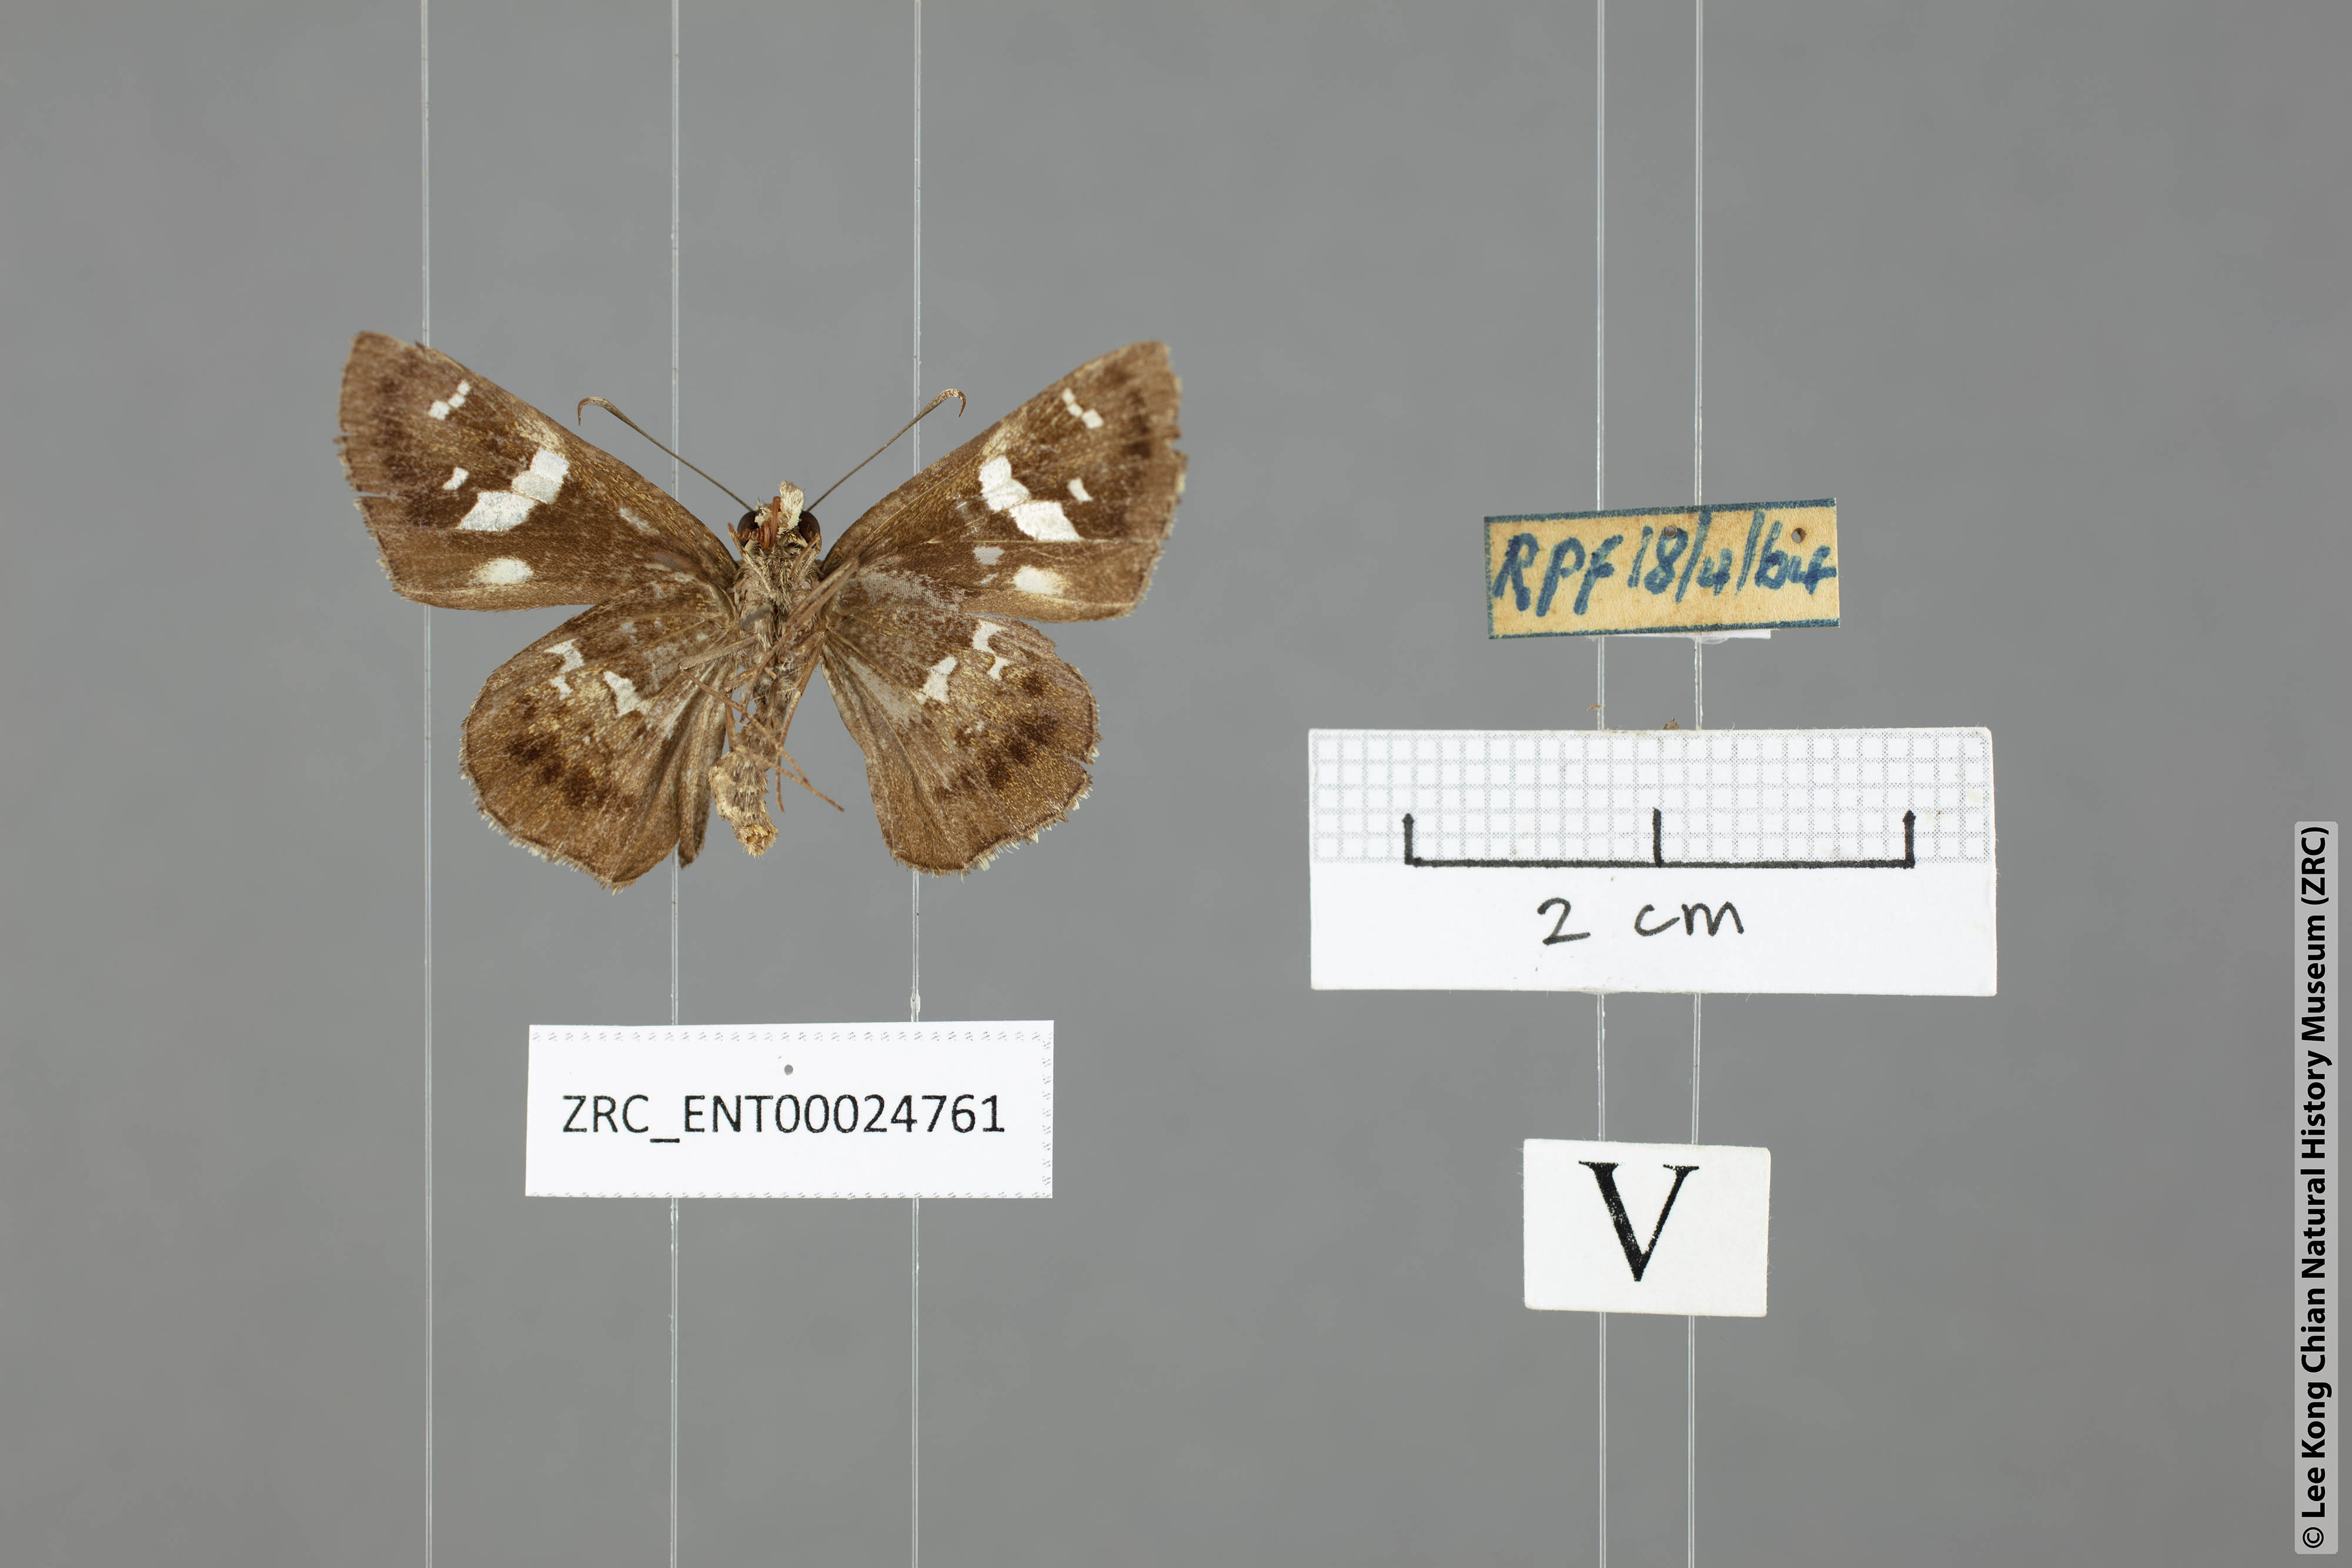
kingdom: Animalia
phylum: Arthropoda
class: Insecta
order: Lepidoptera
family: Hesperiidae
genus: Hyarotis
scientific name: Hyarotis adrastus
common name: Tree flitter
